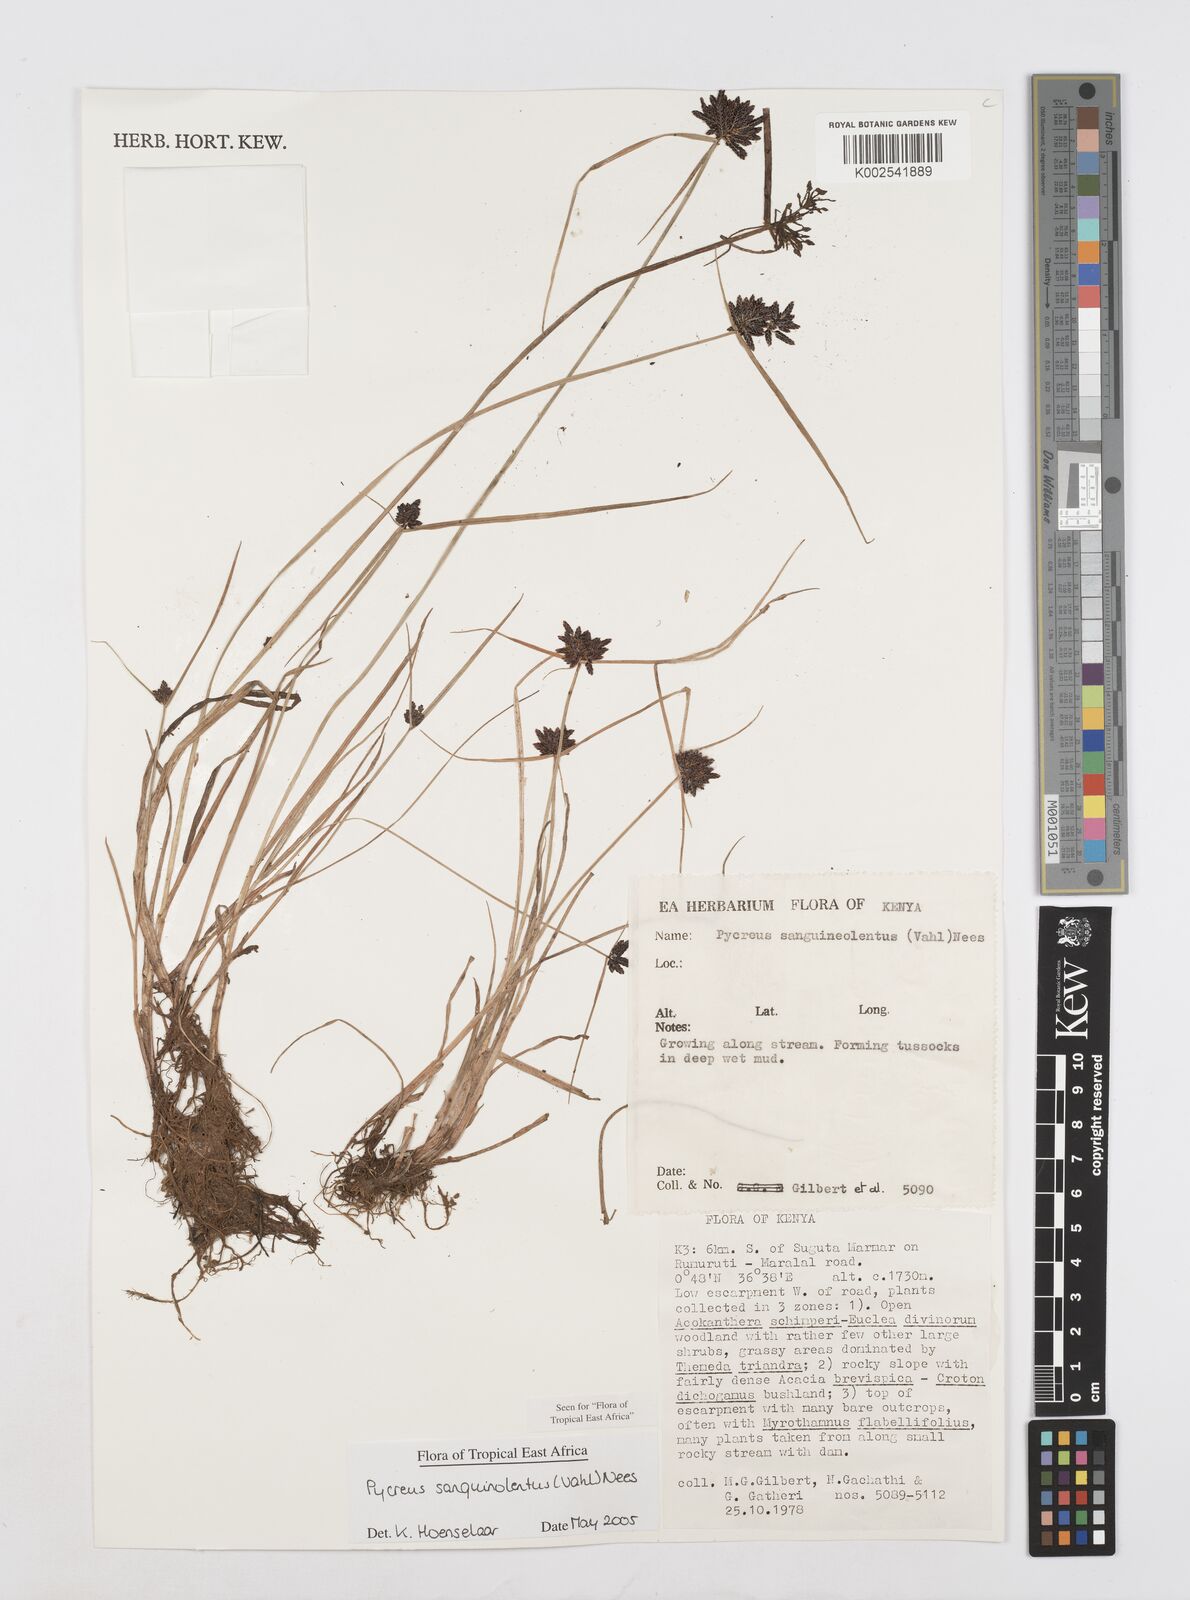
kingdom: Plantae
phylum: Tracheophyta
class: Liliopsida
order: Poales
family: Cyperaceae
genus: Cyperus
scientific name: Cyperus sanguinolentus
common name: Purpleglume flatsedge
